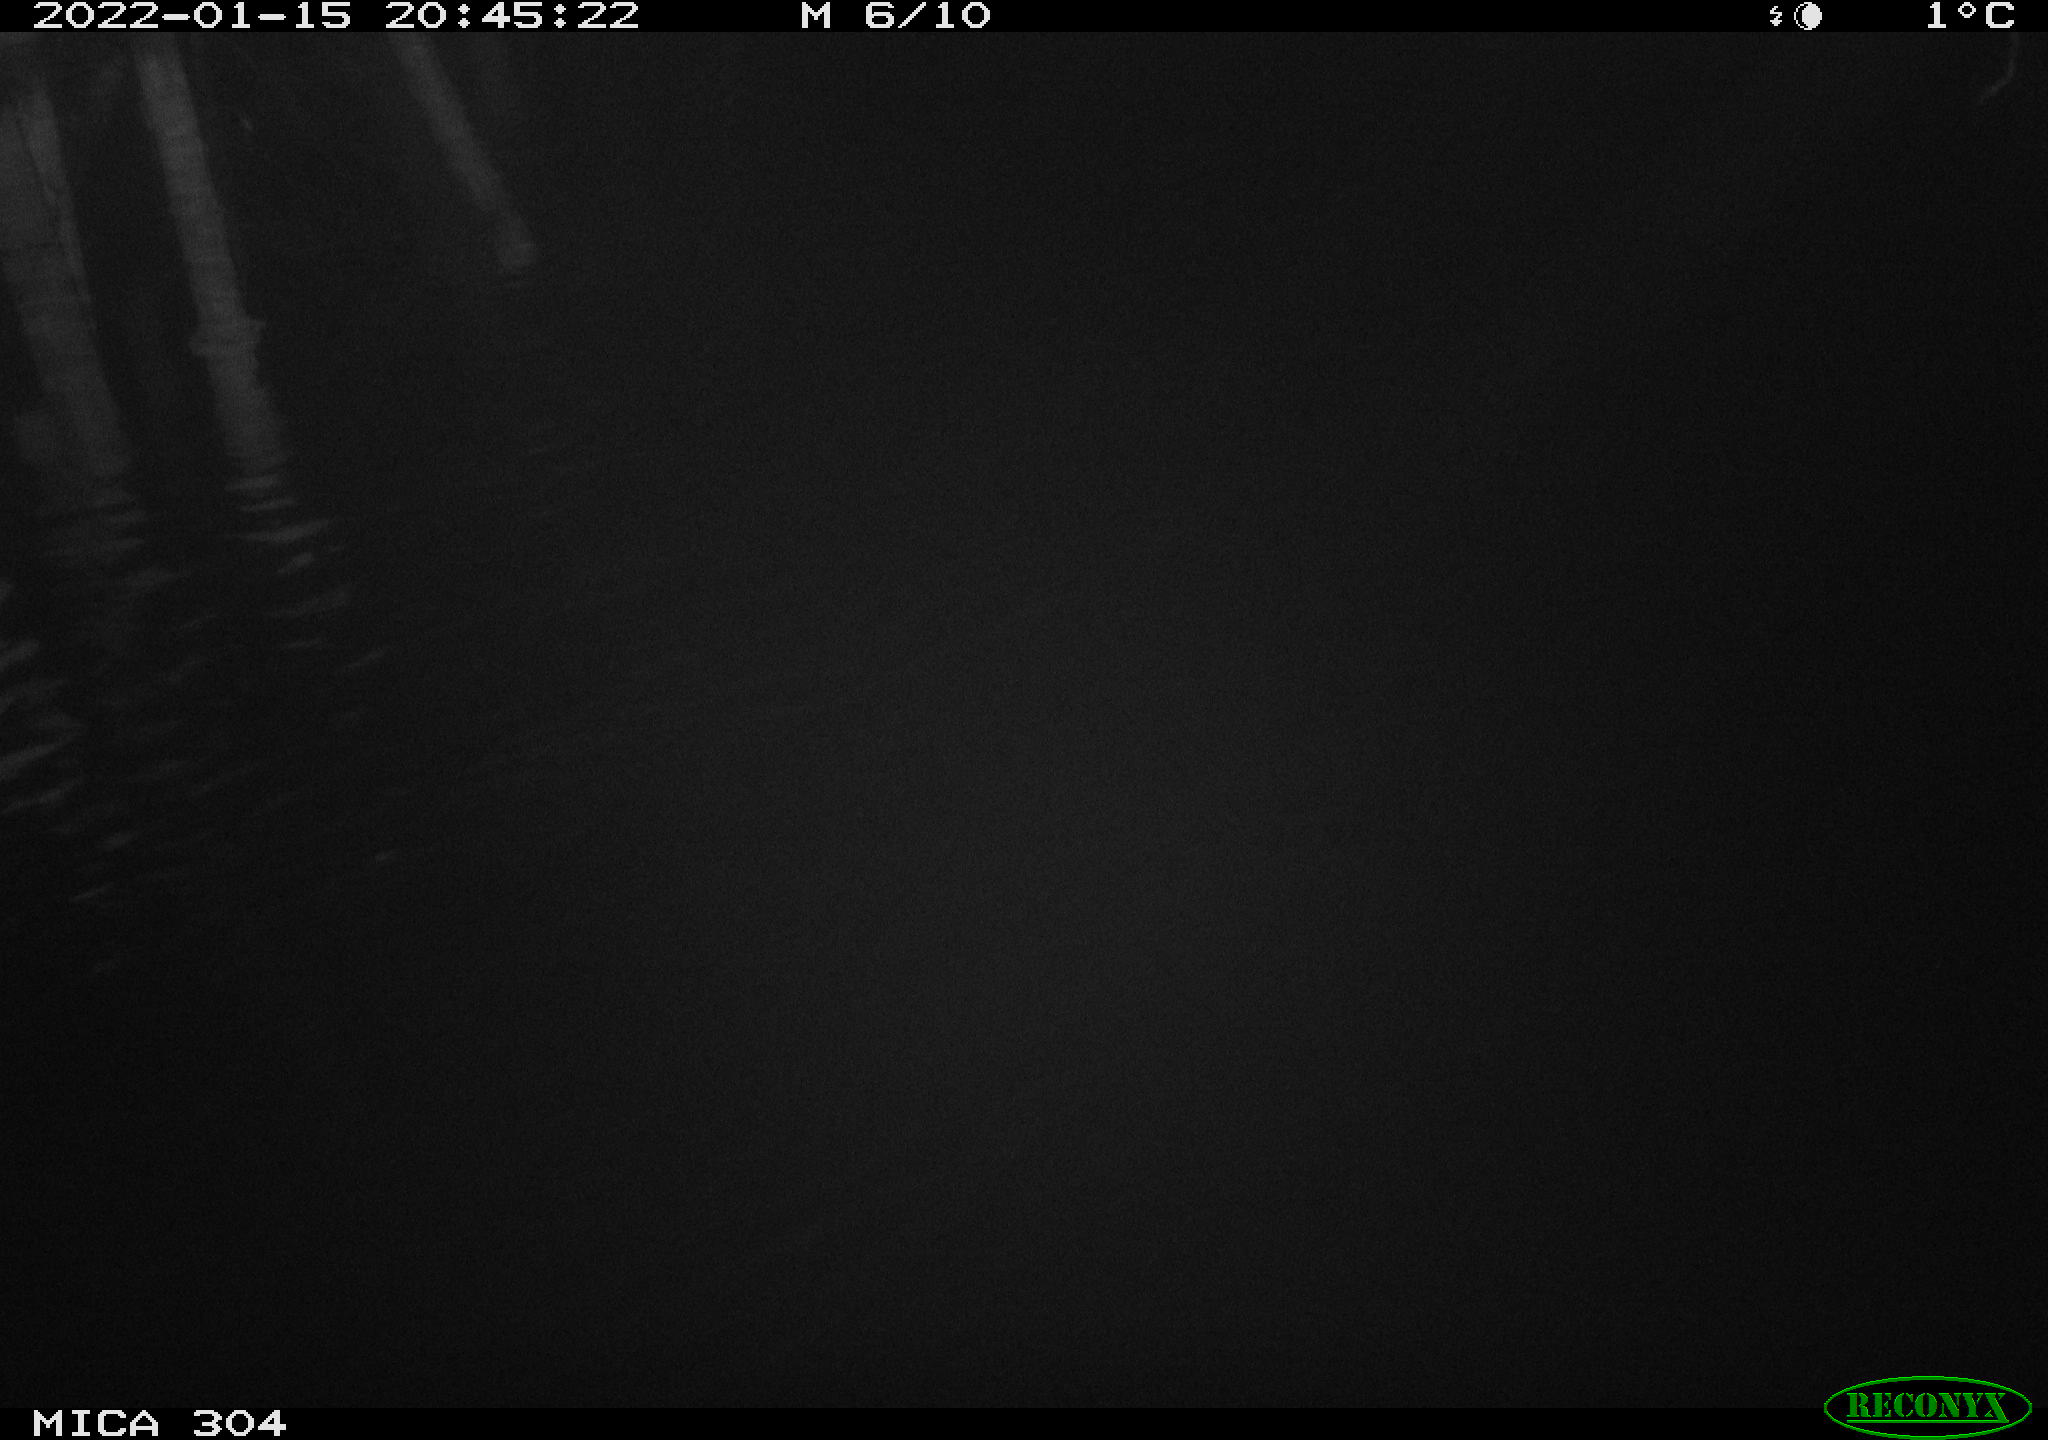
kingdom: Animalia
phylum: Chordata
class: Mammalia
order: Rodentia
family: Muridae
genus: Rattus
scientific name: Rattus norvegicus
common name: Brown rat
